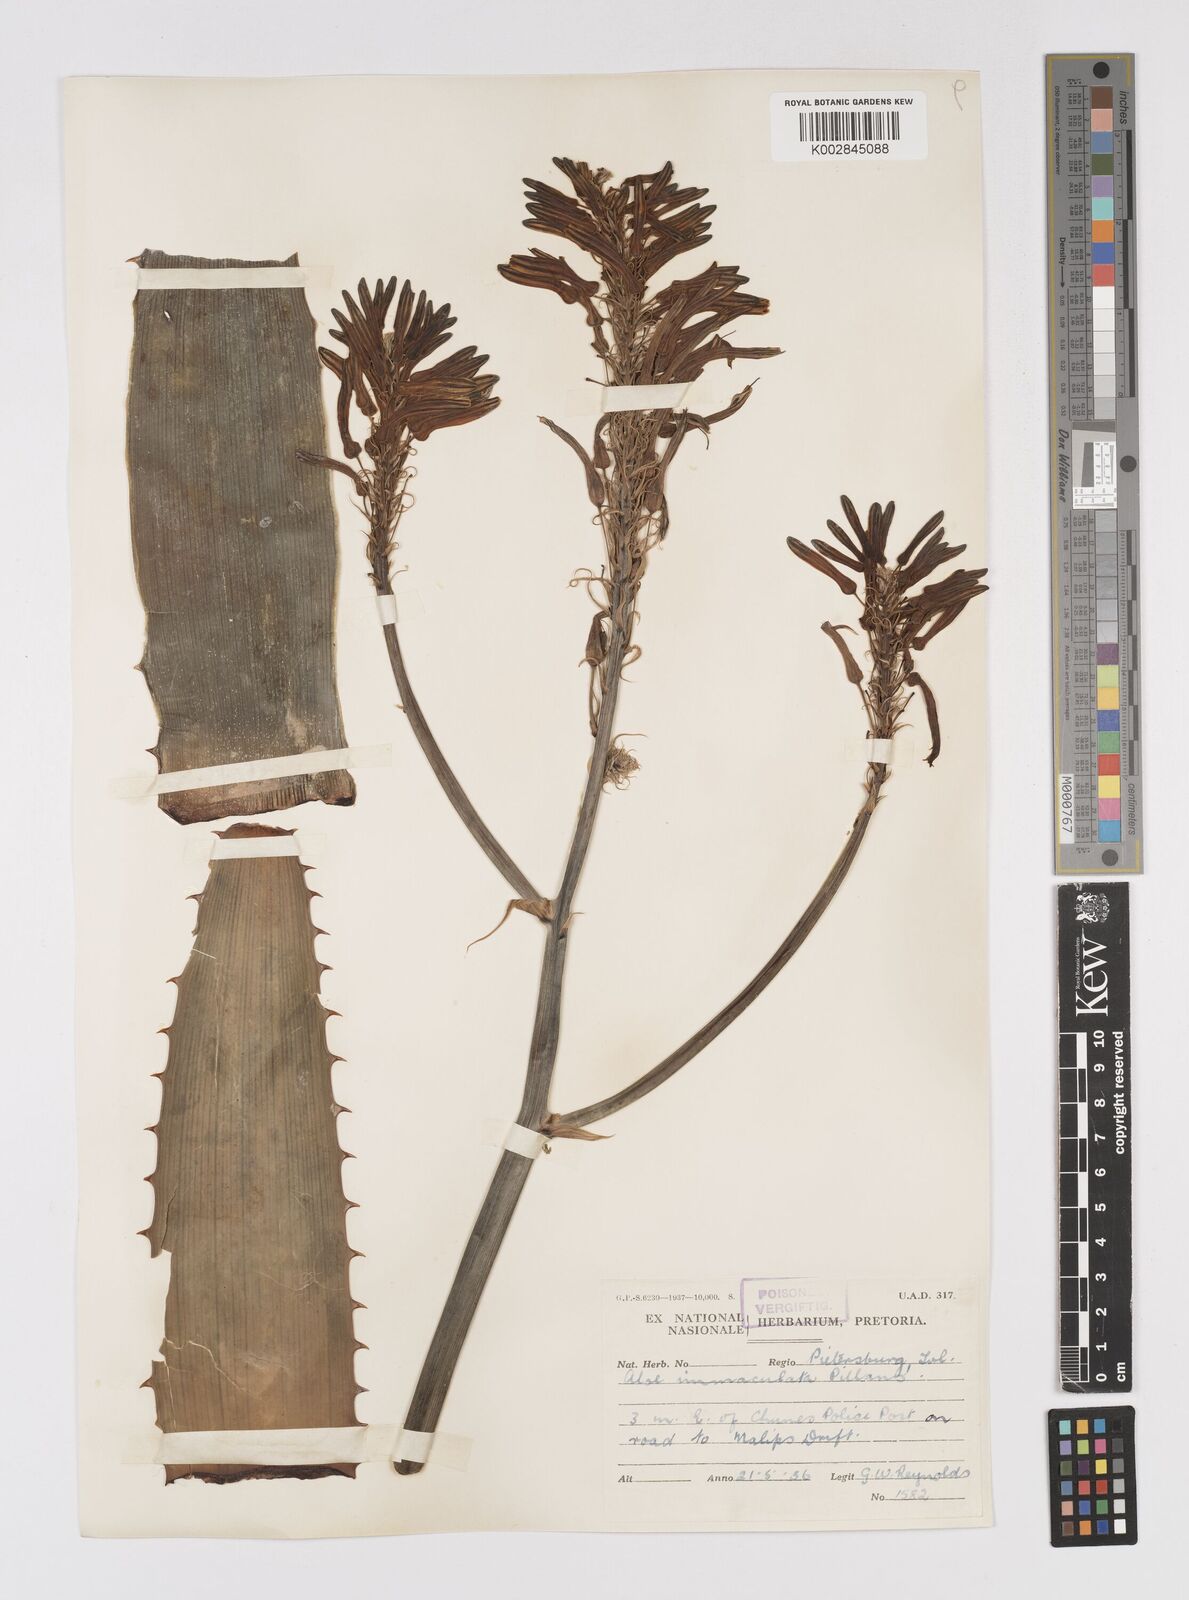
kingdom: Plantae
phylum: Tracheophyta
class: Liliopsida
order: Asparagales
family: Asphodelaceae
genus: Aloe
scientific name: Aloe immaculata
